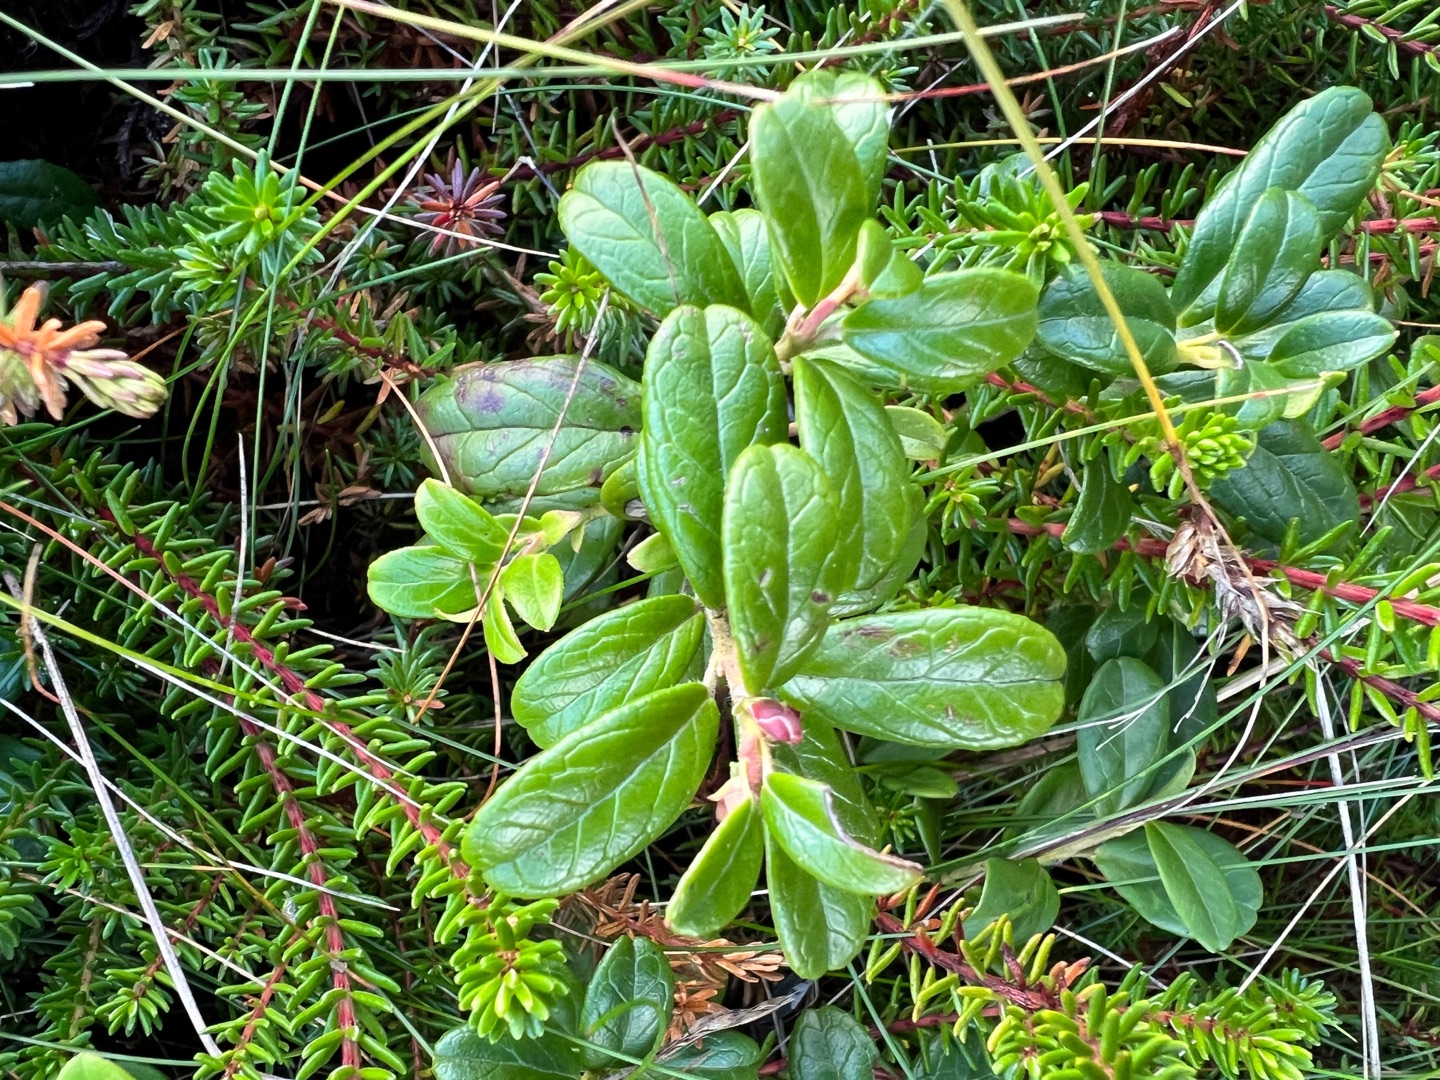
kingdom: Plantae
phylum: Tracheophyta
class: Magnoliopsida
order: Ericales
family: Ericaceae
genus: Vaccinium
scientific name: Vaccinium vitis-idaea
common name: Tyttebær
